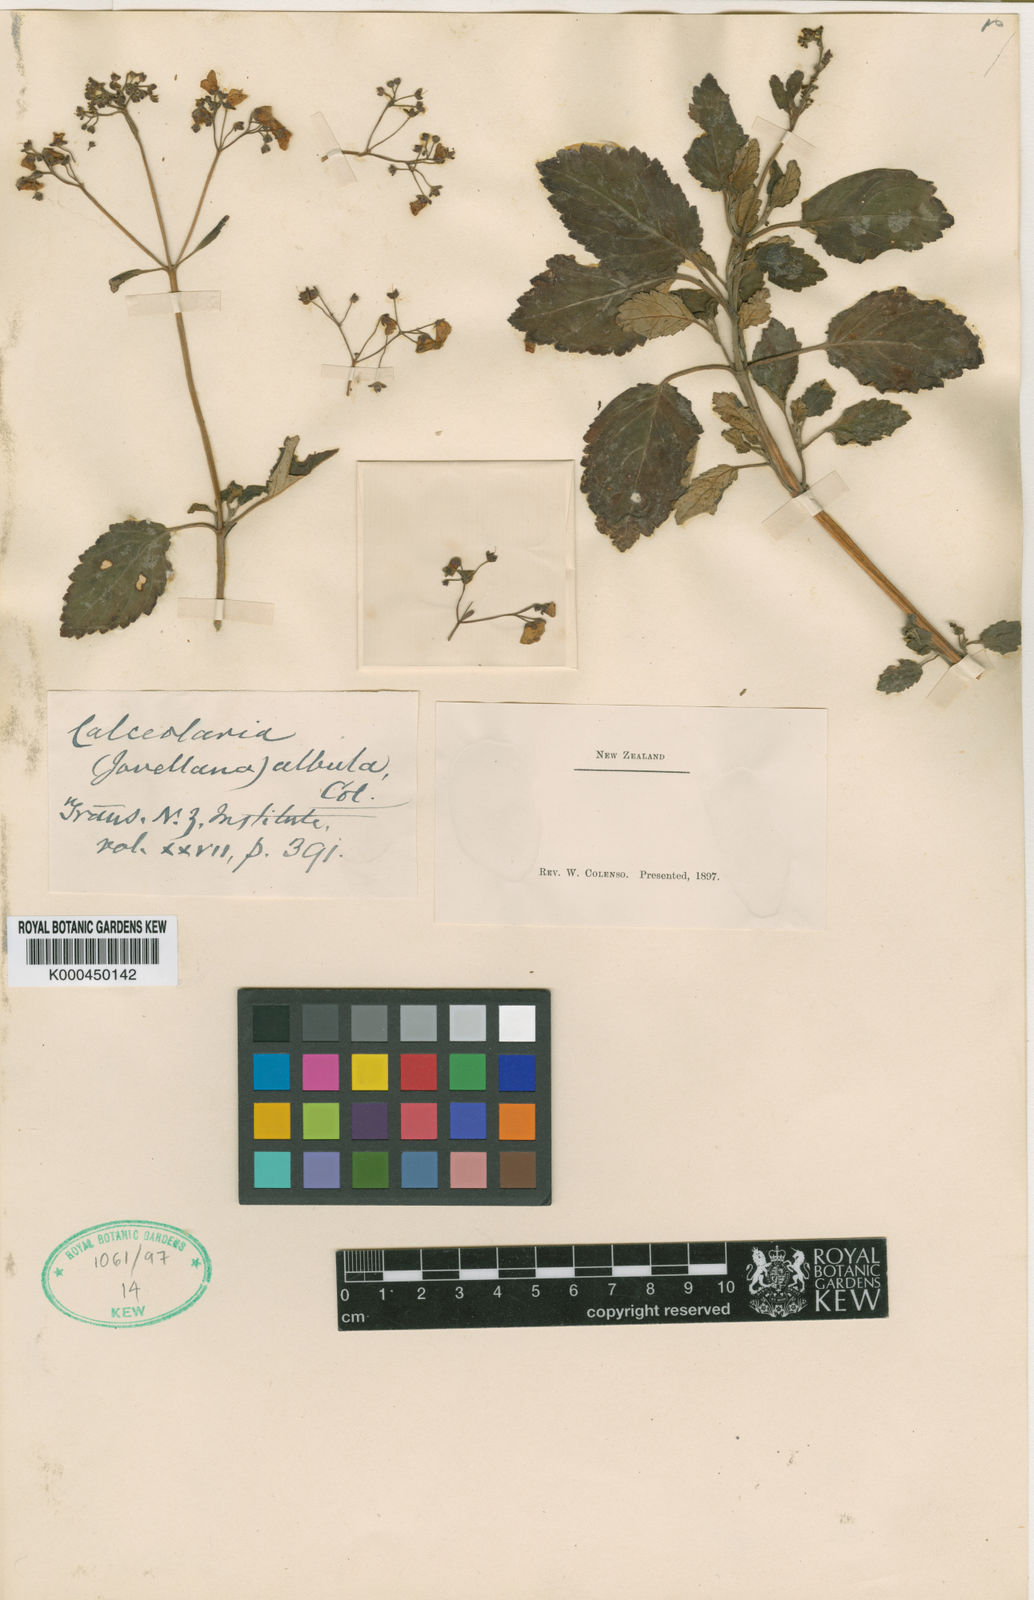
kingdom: Plantae
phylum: Tracheophyta
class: Magnoliopsida
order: Lamiales
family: Calceolariaceae
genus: Jovellana
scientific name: Jovellana sinclairii
